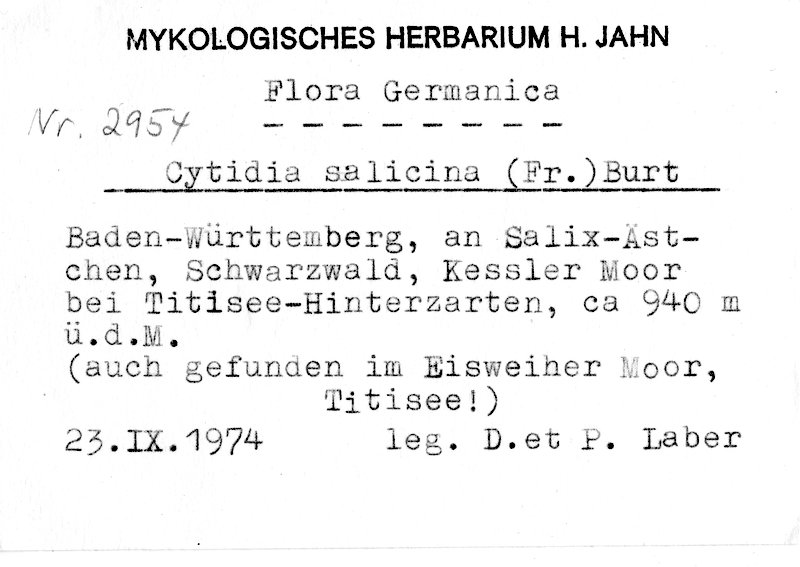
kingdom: Plantae
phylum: Tracheophyta
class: Magnoliopsida
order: Malpighiales
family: Salicaceae
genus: Salix
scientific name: Salix
